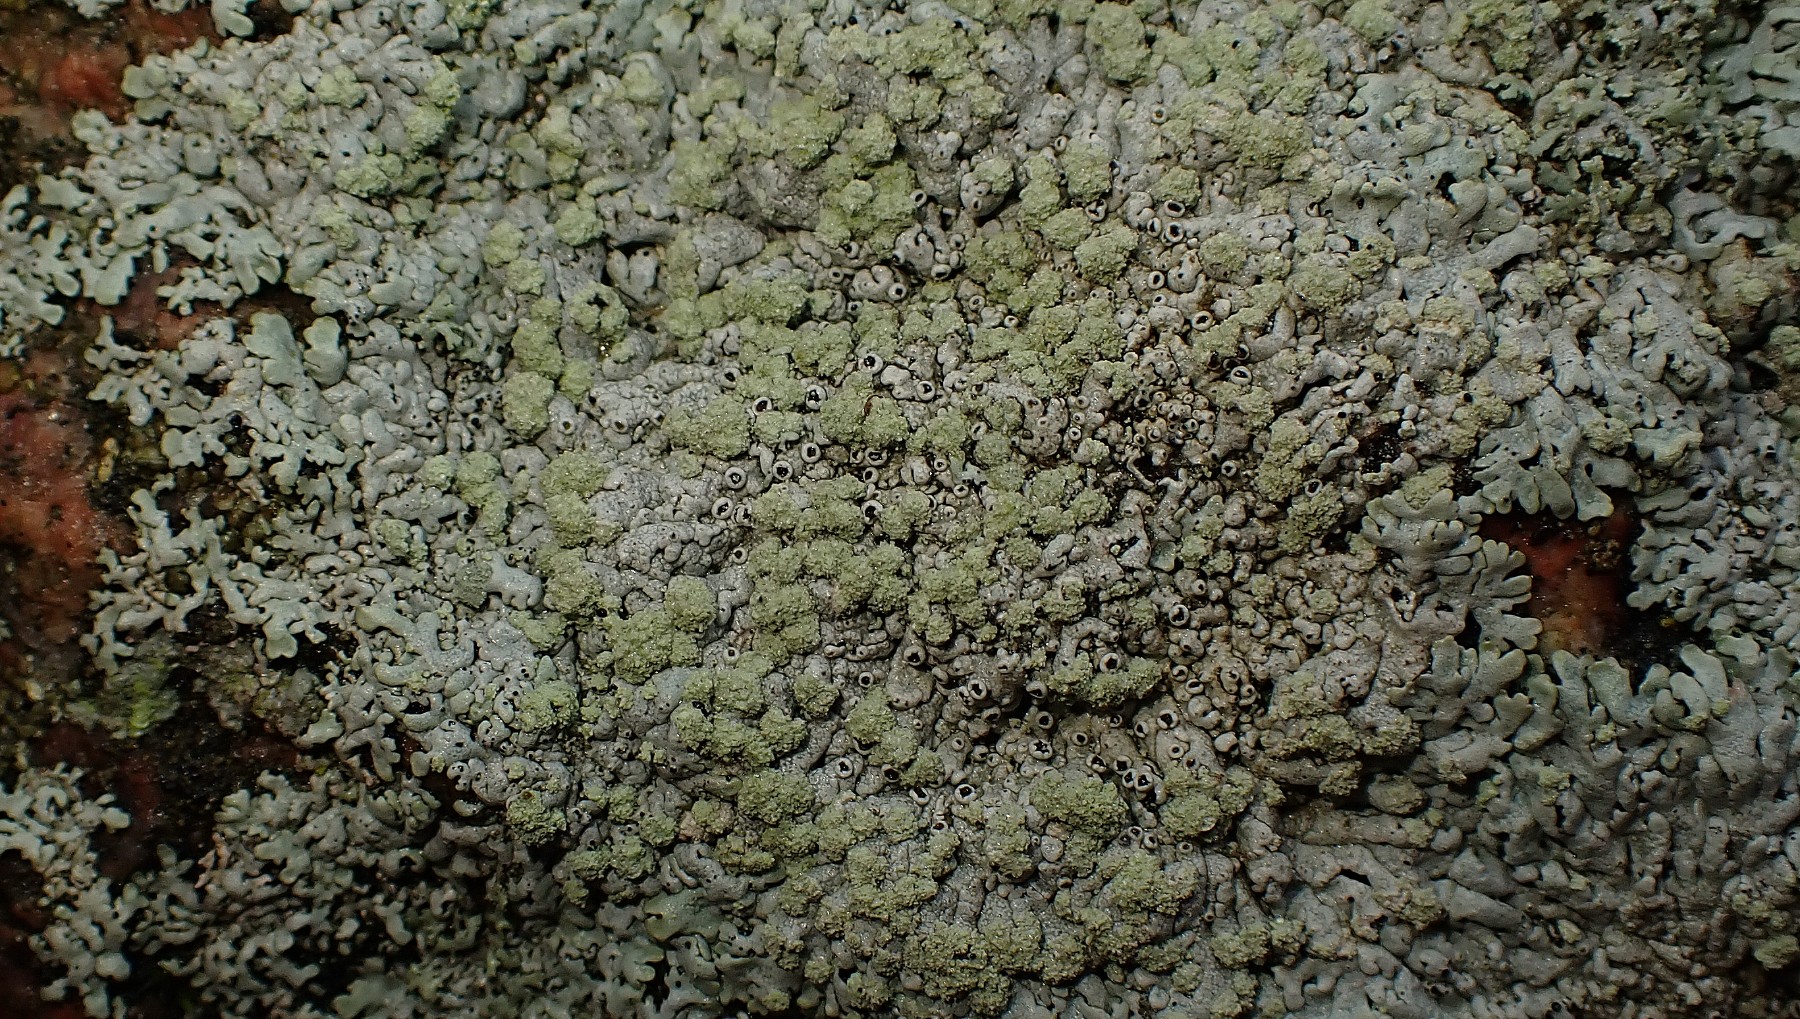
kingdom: Fungi
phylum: Ascomycota
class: Lecanoromycetes
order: Caliciales
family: Physciaceae
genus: Physcia
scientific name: Physcia caesia
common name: blågrå rosetlav
